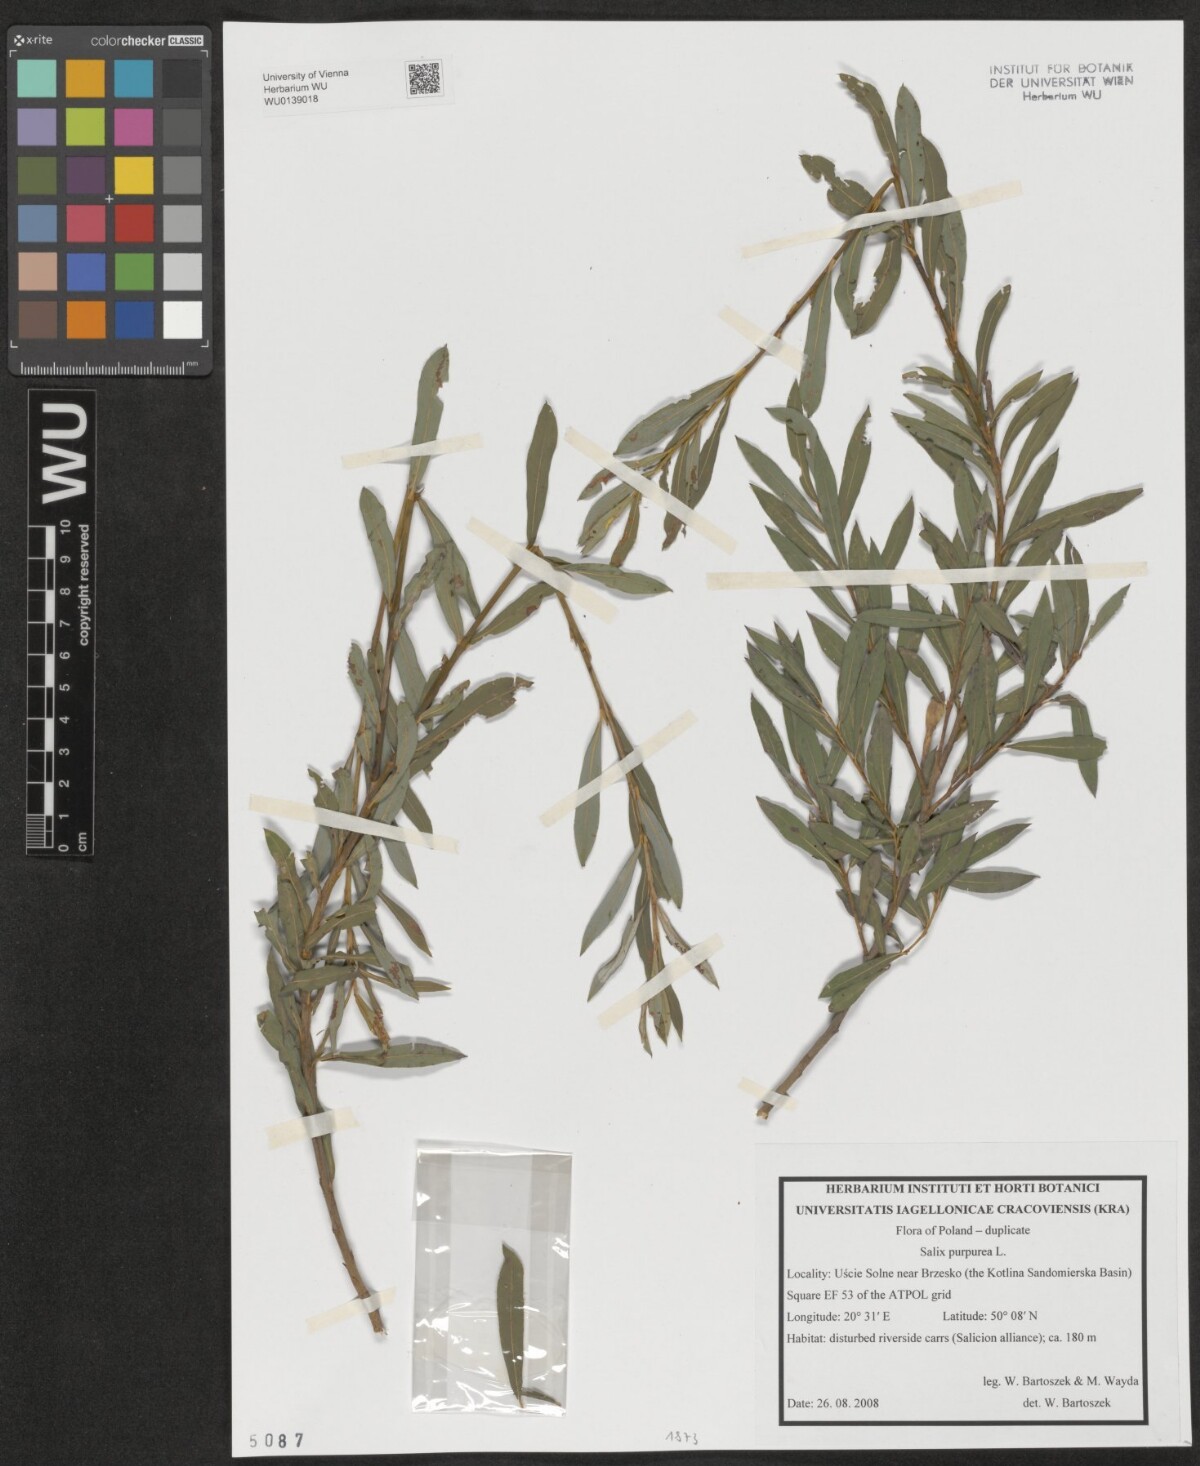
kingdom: Plantae
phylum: Tracheophyta
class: Magnoliopsida
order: Malpighiales
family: Salicaceae
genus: Salix
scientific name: Salix purpurea
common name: Purple willow
